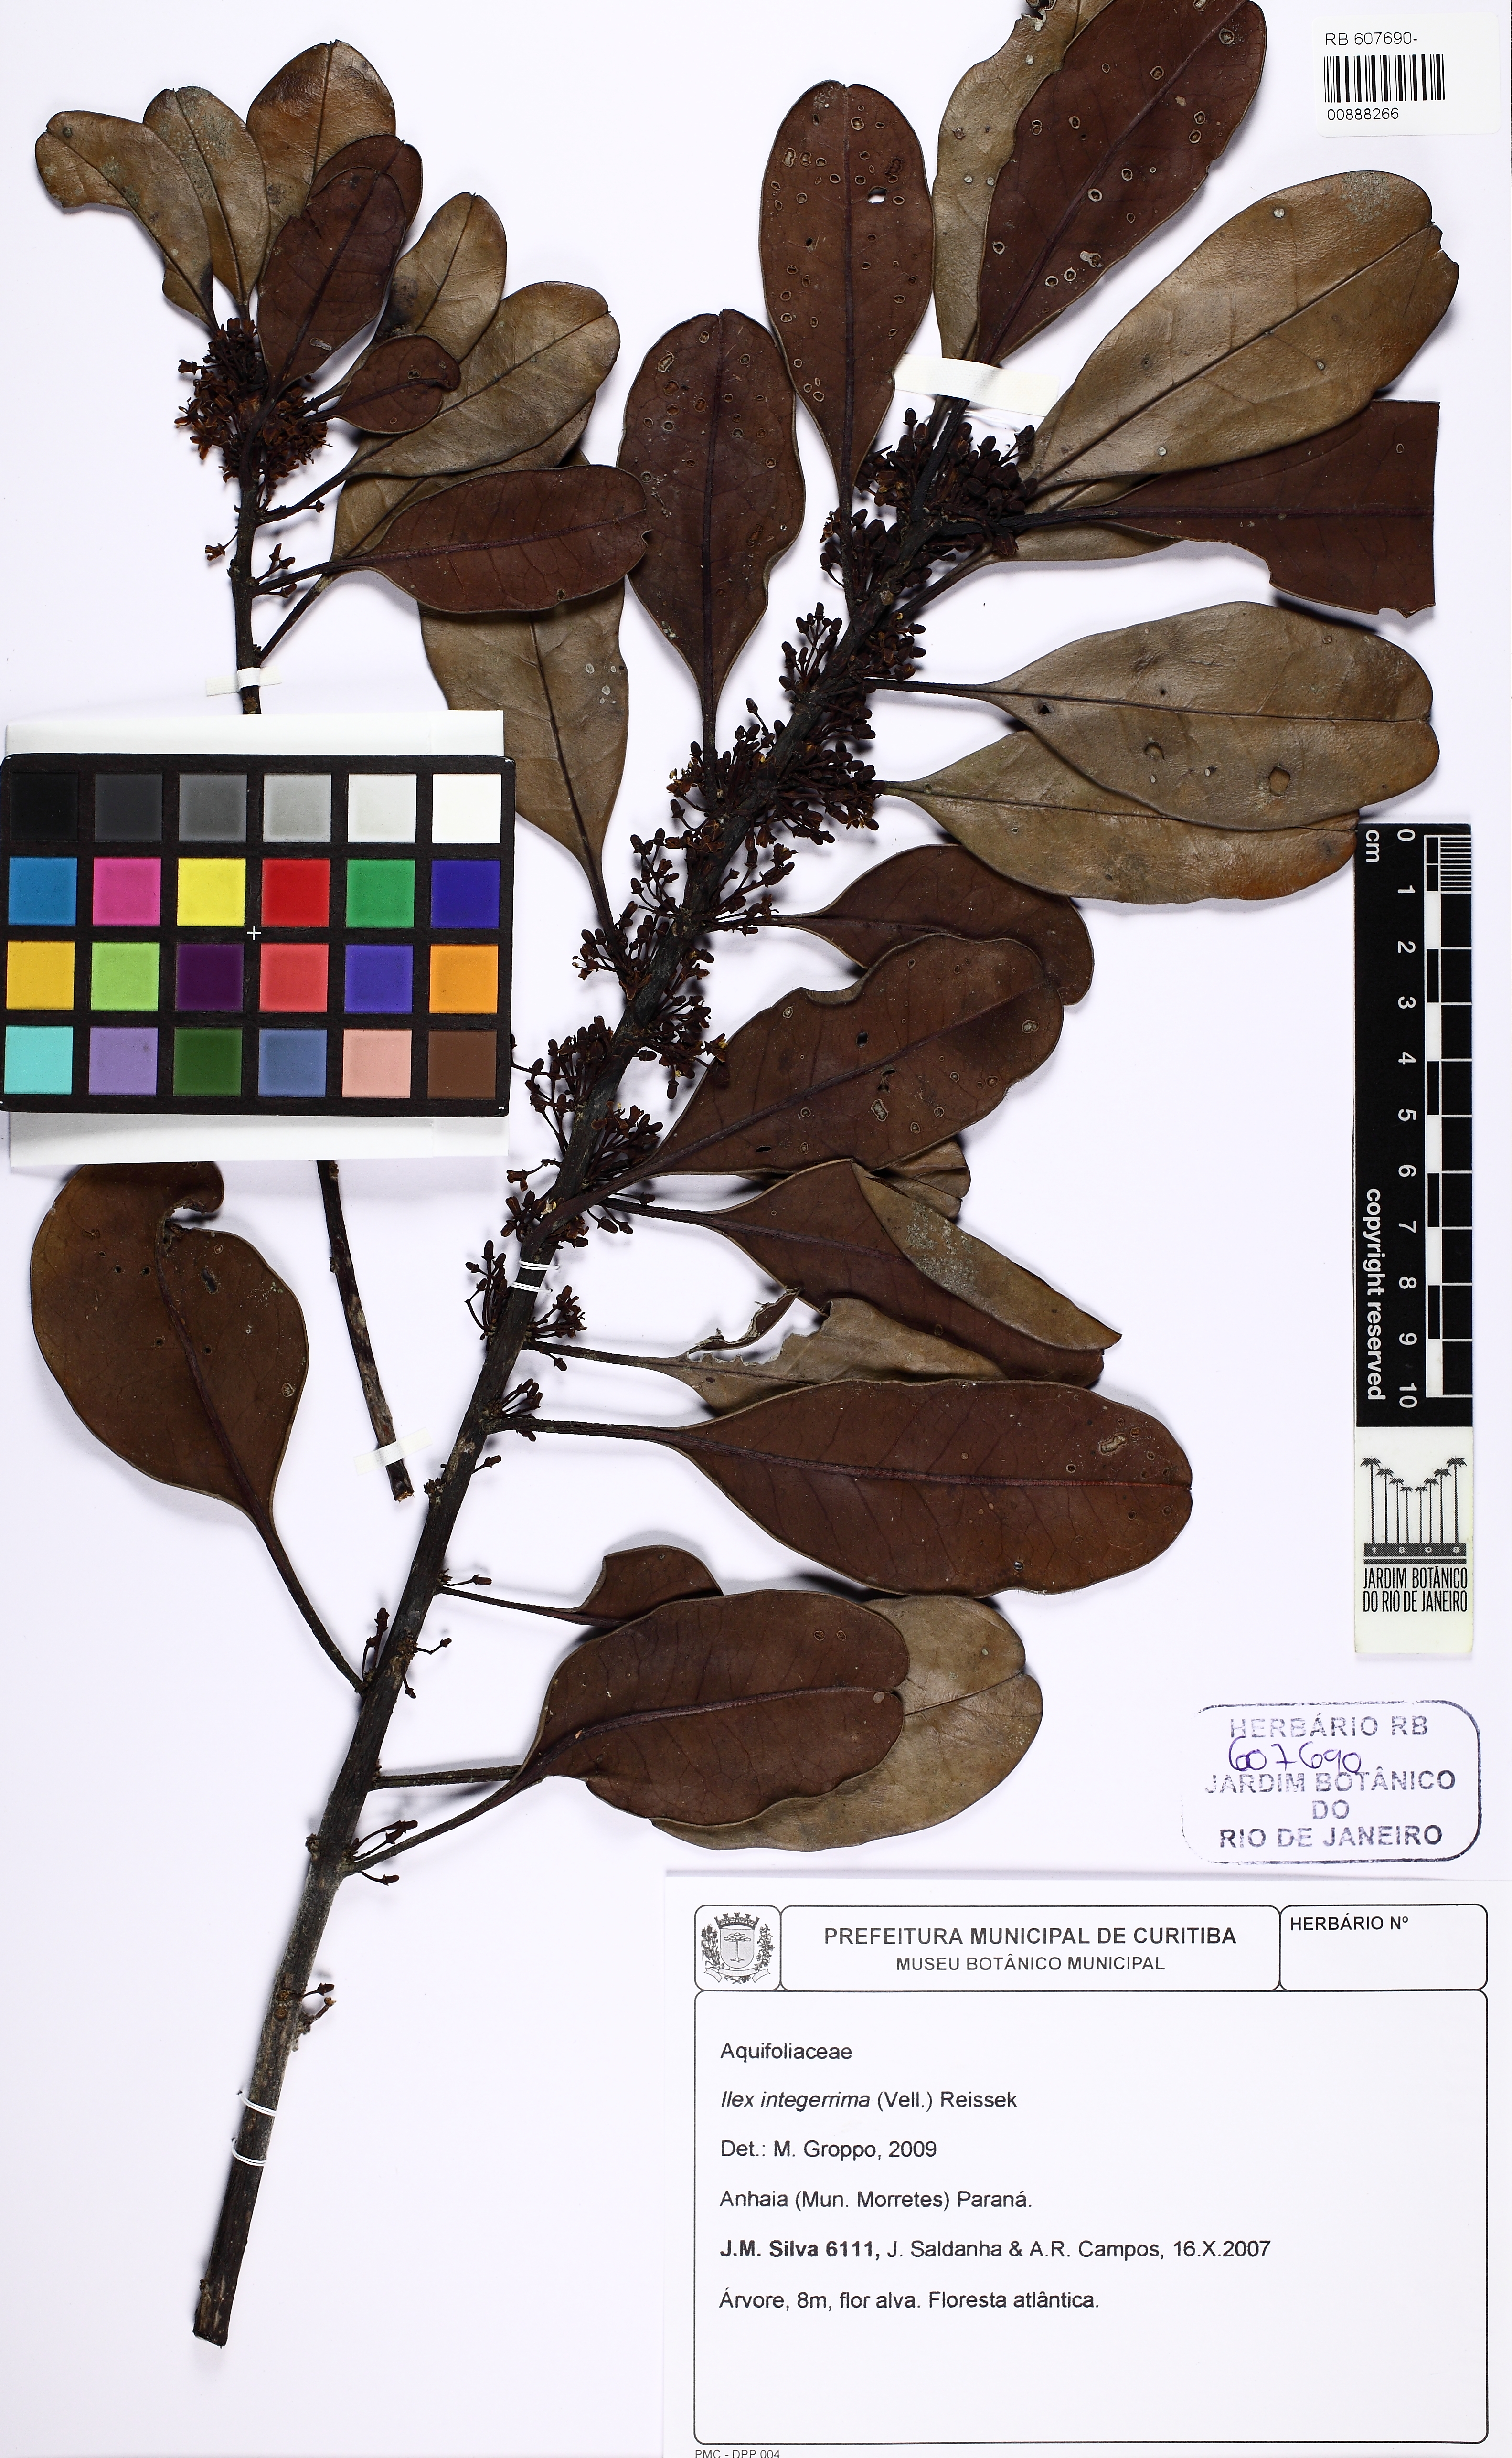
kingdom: Plantae
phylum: Tracheophyta
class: Magnoliopsida
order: Aquifoliales
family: Aquifoliaceae
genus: Ilex
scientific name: Ilex integerrima
